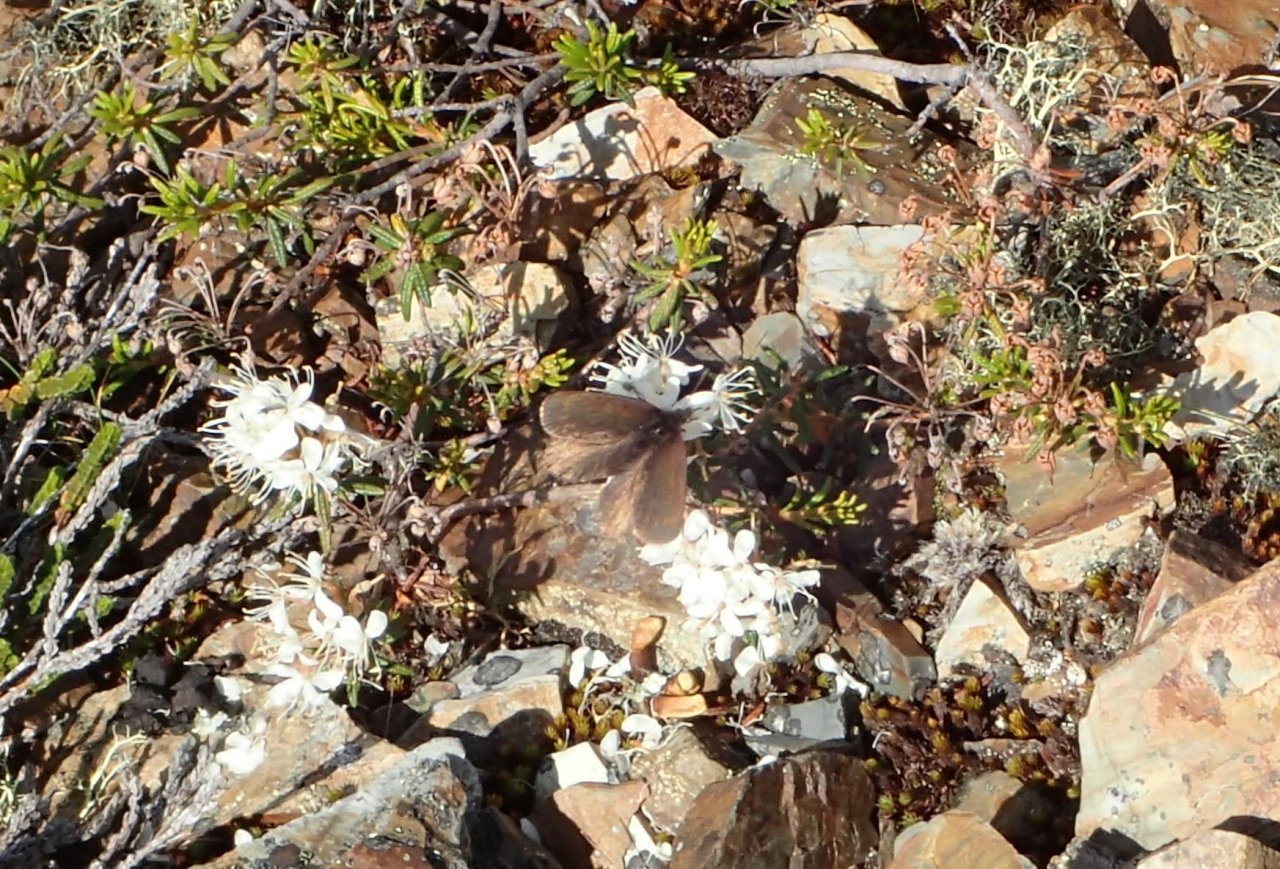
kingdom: Animalia
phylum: Arthropoda
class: Insecta
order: Lepidoptera
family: Nymphalidae
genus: Erebia
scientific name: Erebia occulta
